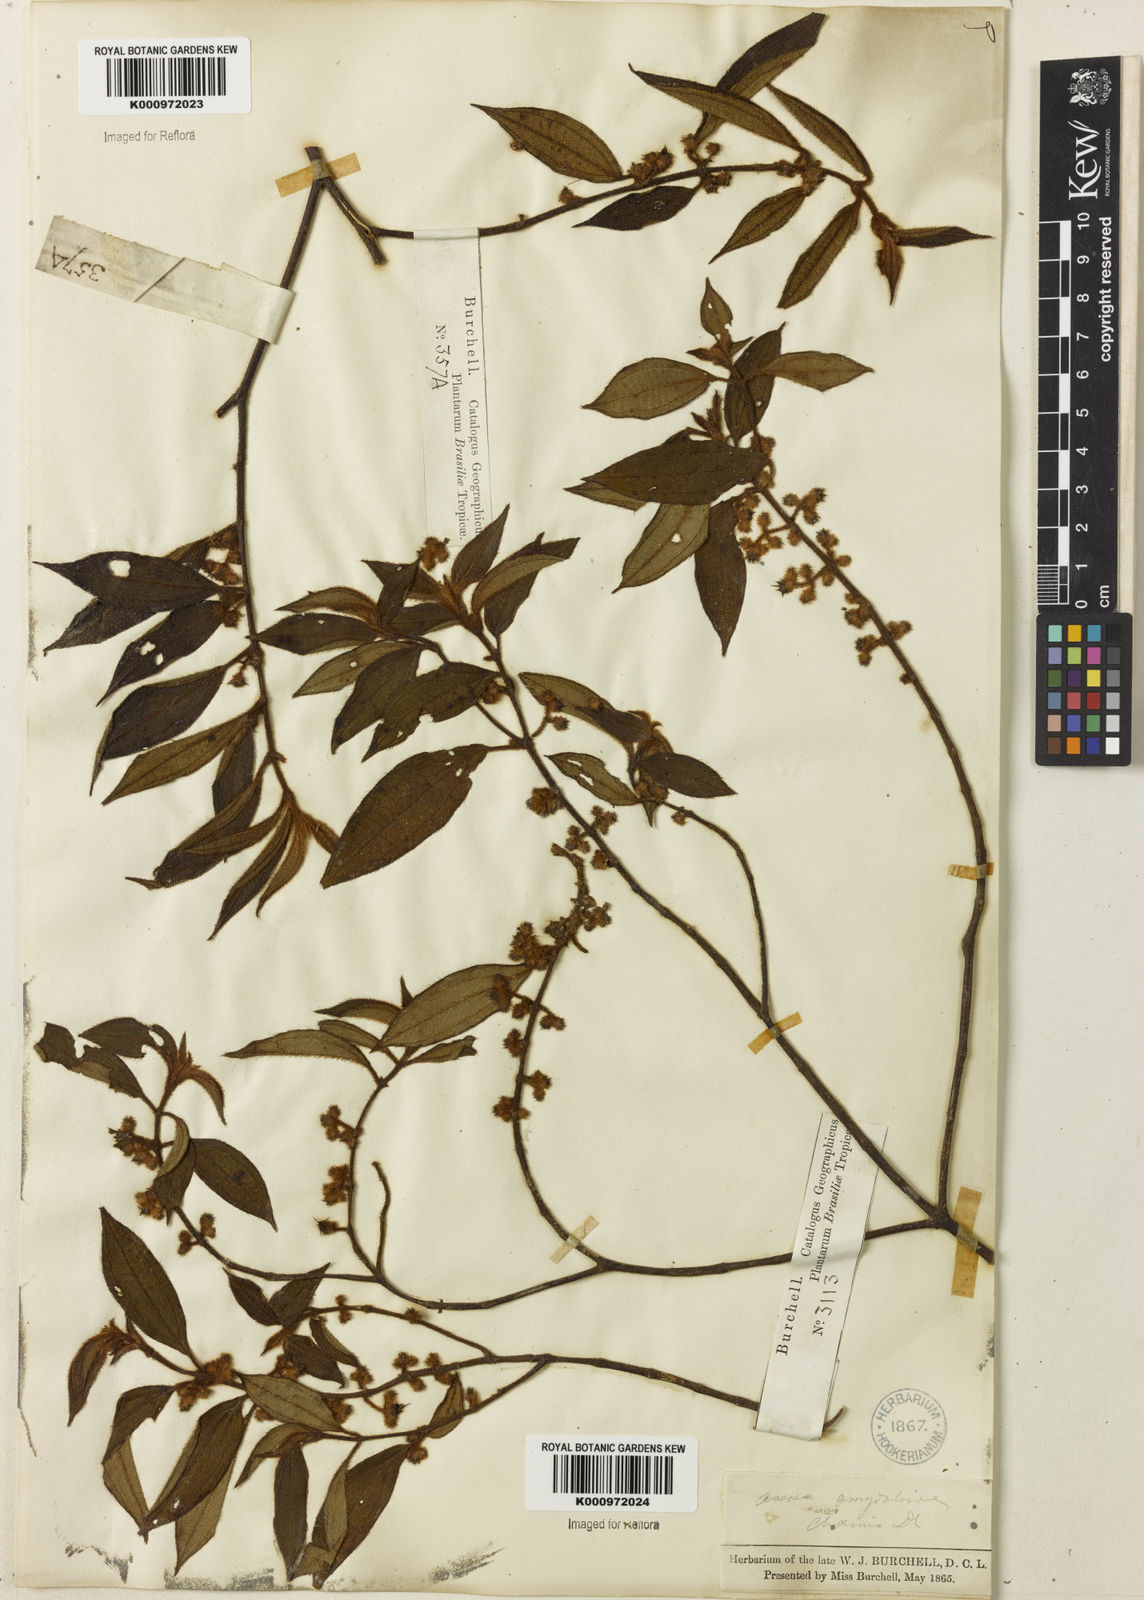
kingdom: Plantae
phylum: Tracheophyta
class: Magnoliopsida
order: Myrtales
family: Melastomataceae
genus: Miconia
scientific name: Miconia amygdaloides
